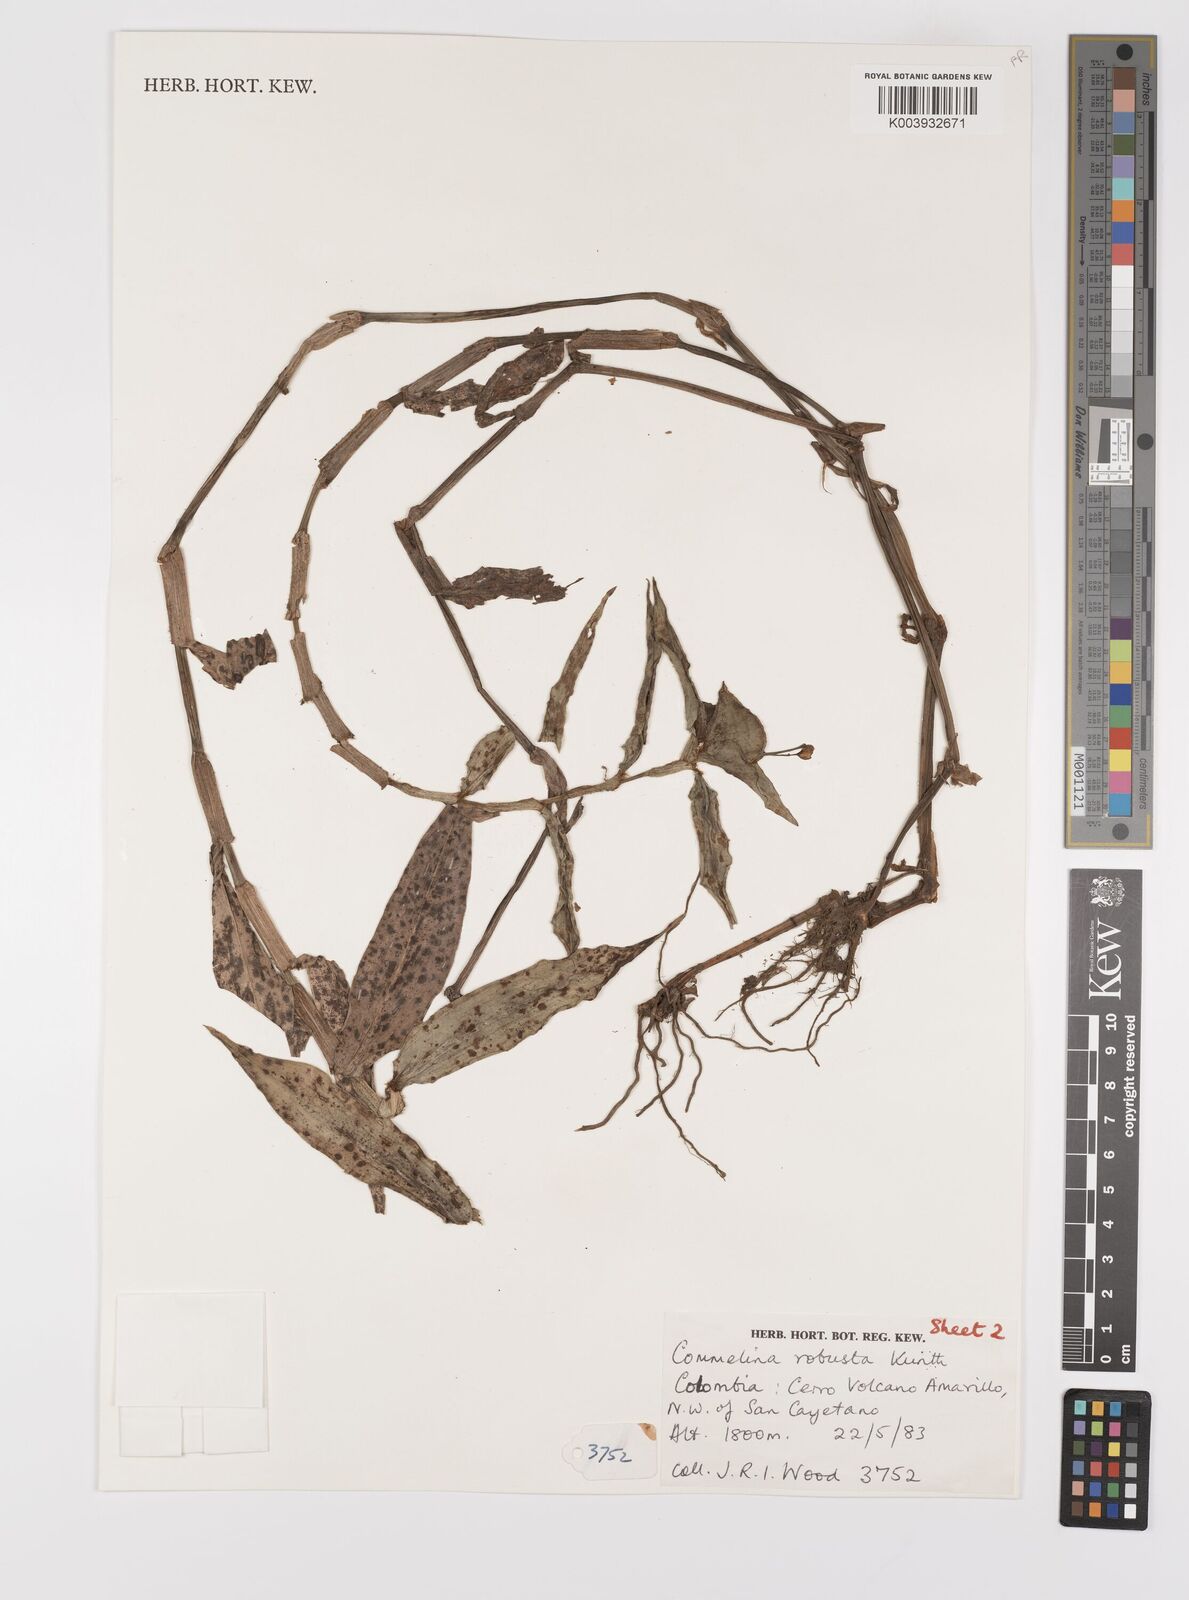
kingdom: Plantae
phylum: Tracheophyta
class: Liliopsida
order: Commelinales
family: Commelinaceae
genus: Commelina
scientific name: Commelina obliqua
